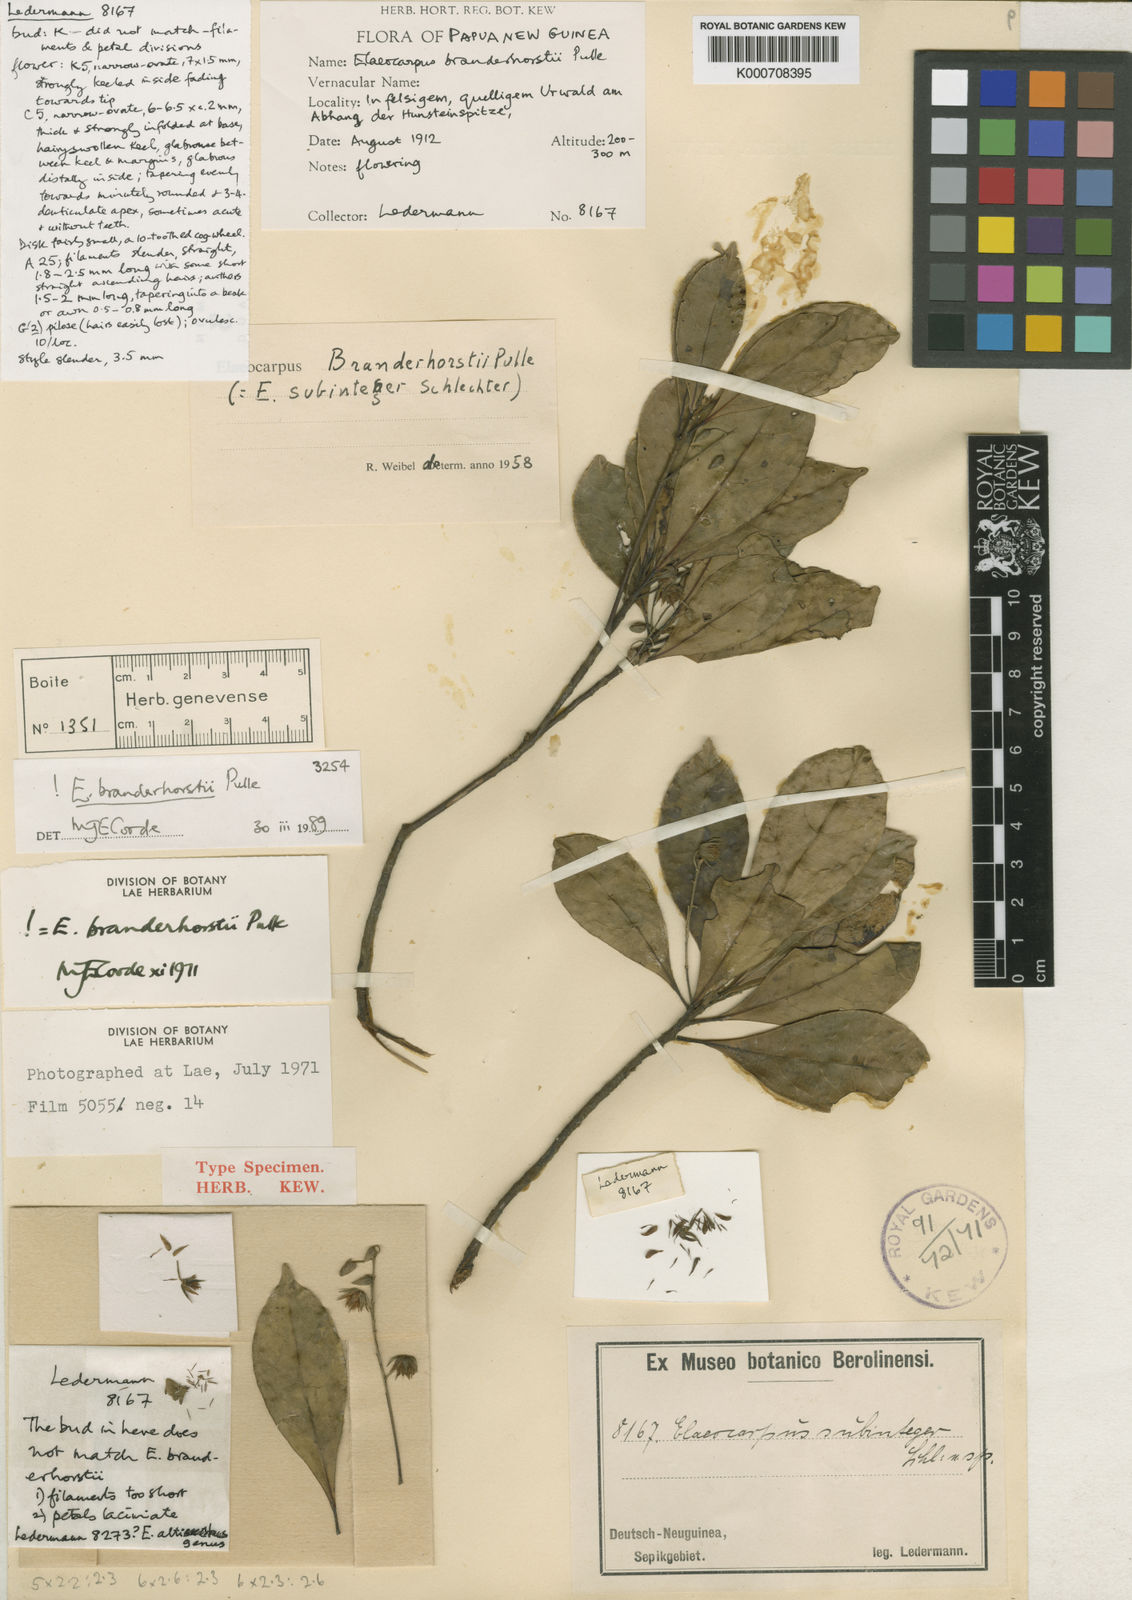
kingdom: Plantae
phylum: Tracheophyta
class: Magnoliopsida
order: Oxalidales
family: Elaeocarpaceae
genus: Elaeocarpus
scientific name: Elaeocarpus branderhorstii
